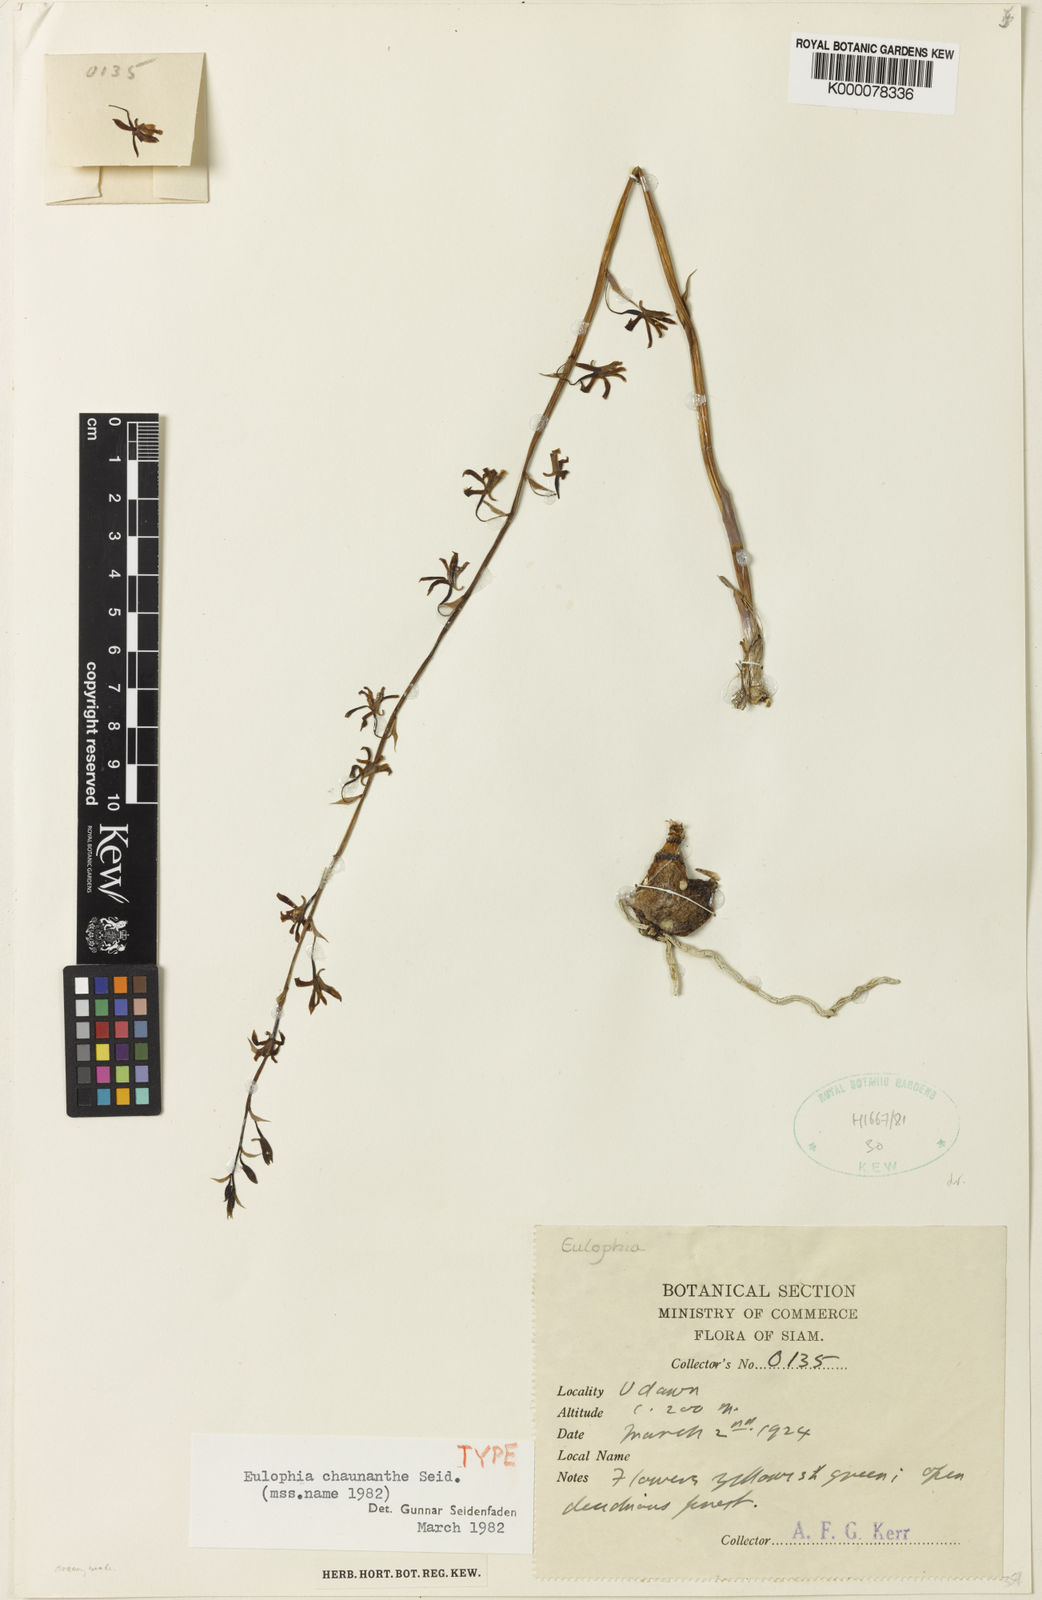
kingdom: Plantae
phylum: Tracheophyta
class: Liliopsida
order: Asparagales
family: Orchidaceae
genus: Eulophia
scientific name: Eulophia
